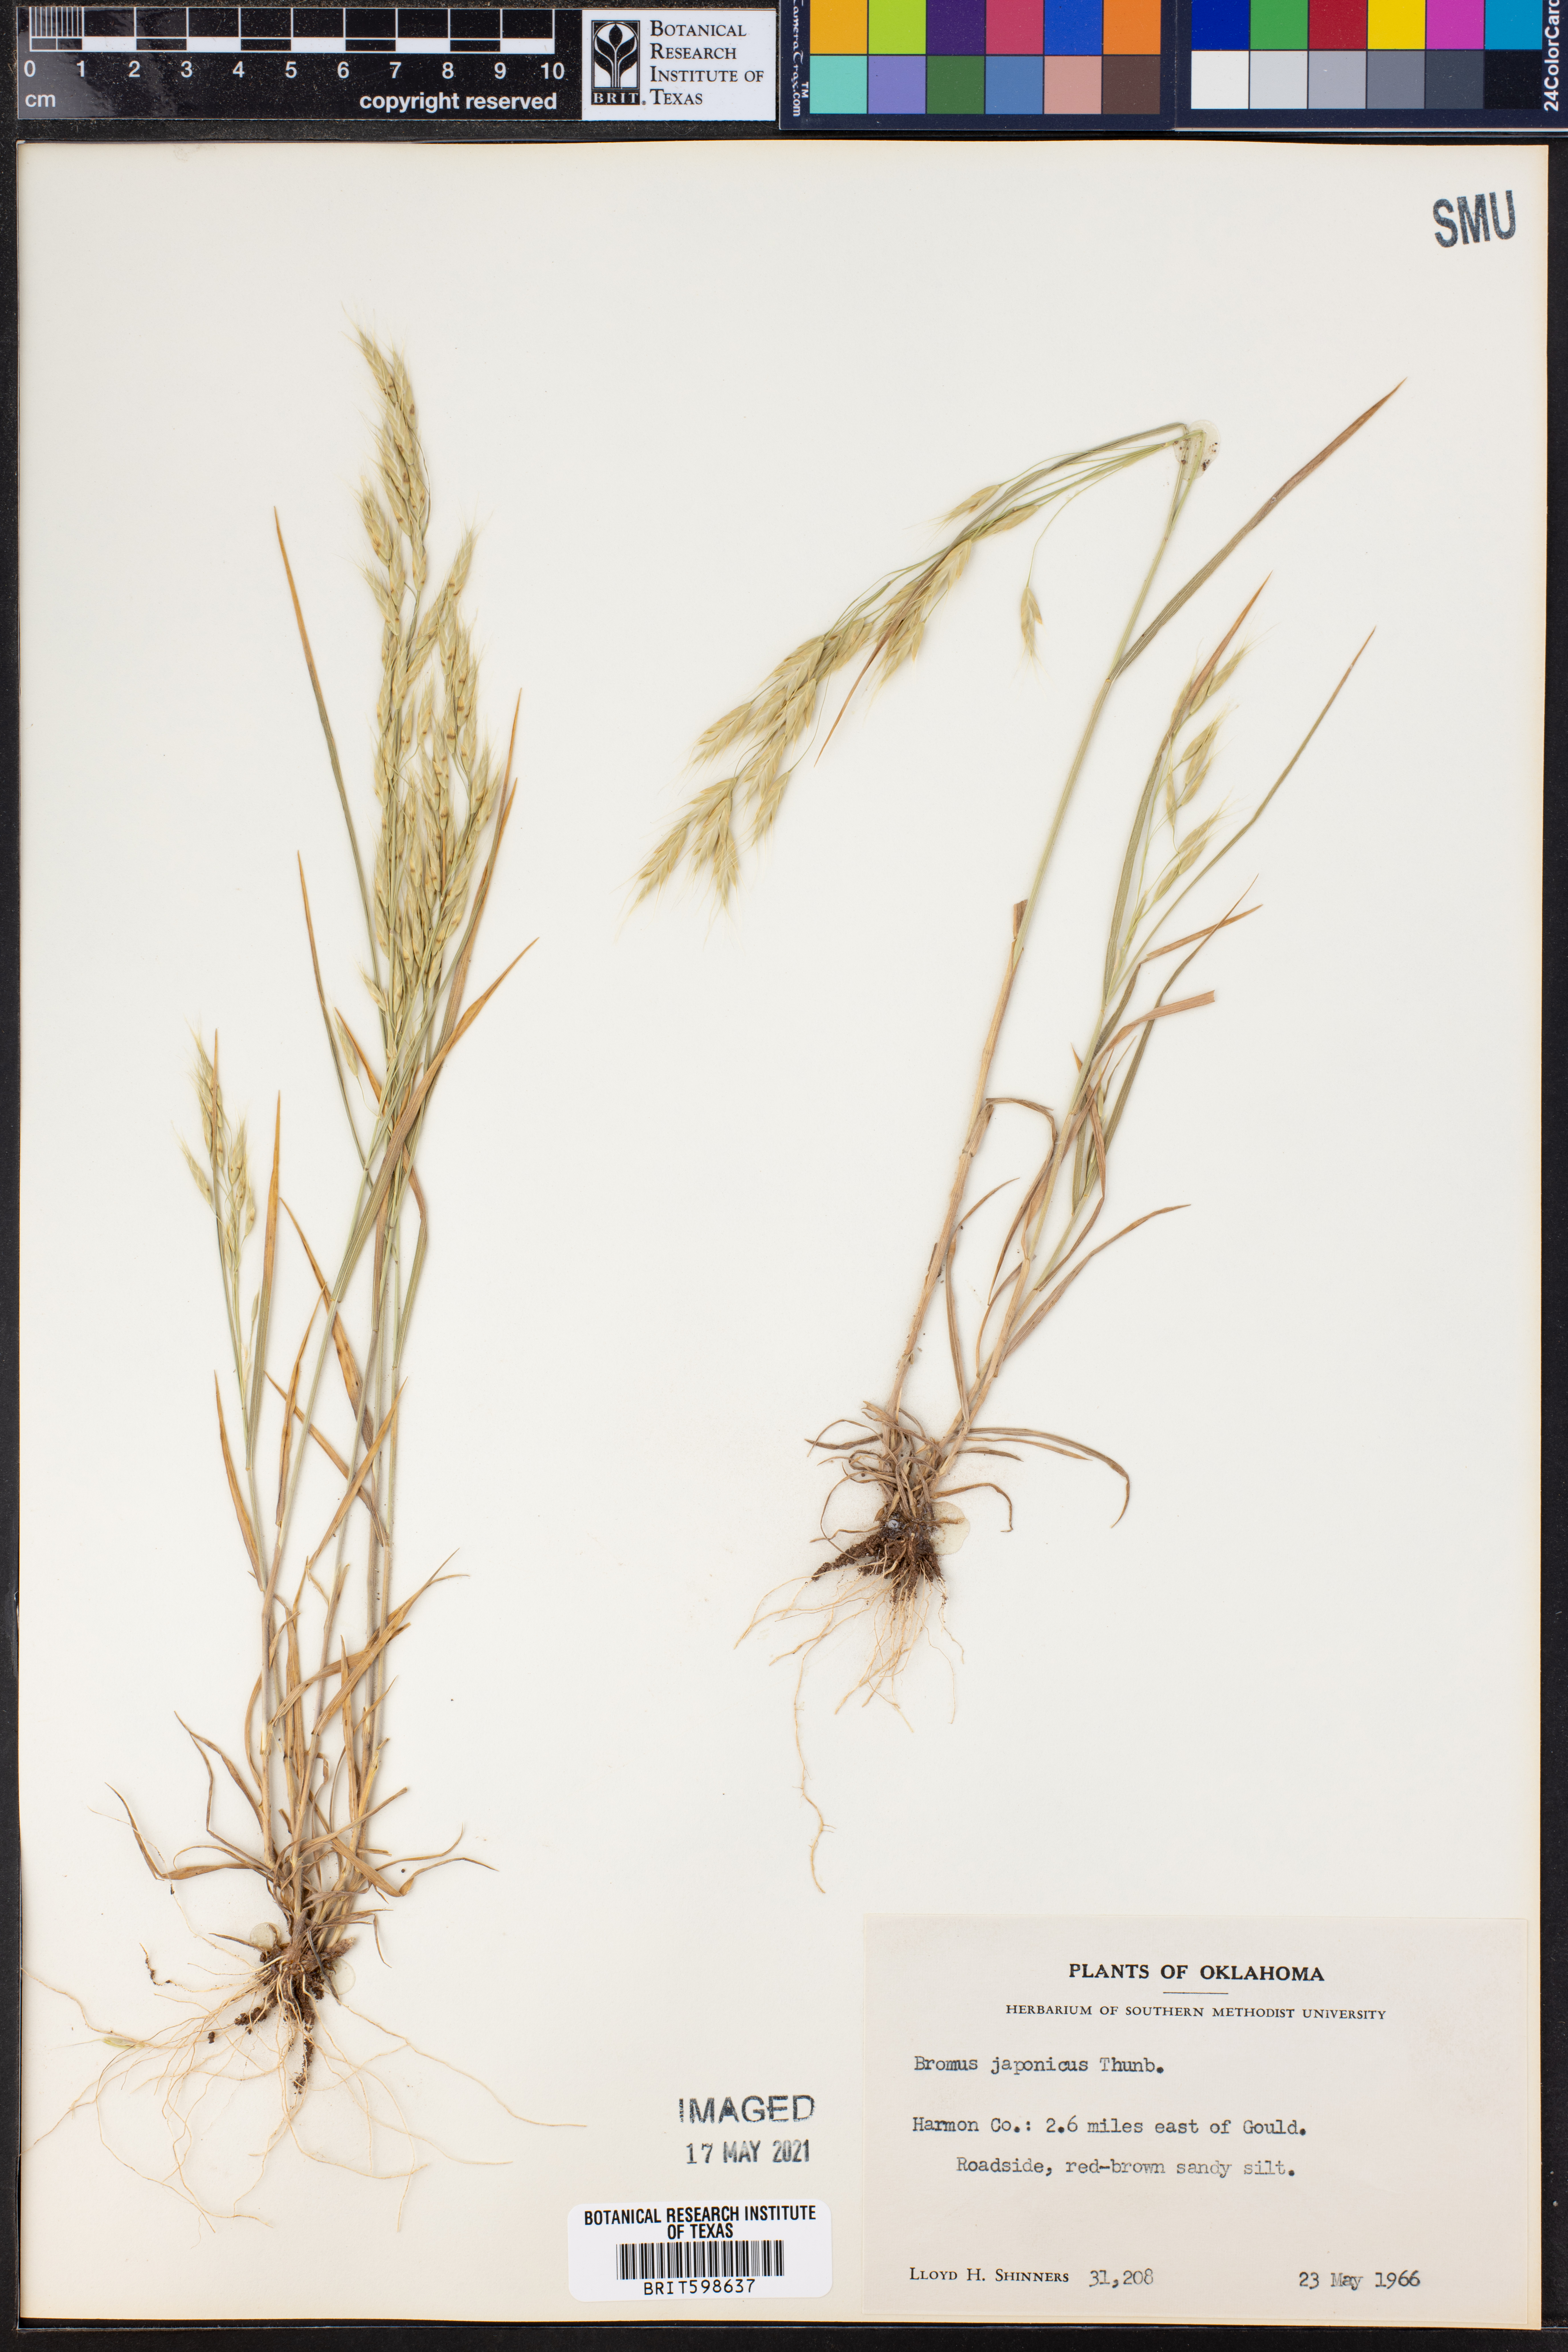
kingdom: Plantae
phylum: Tracheophyta
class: Liliopsida
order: Poales
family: Poaceae
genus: Bromus
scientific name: Bromus japonicus
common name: Japanese brome
